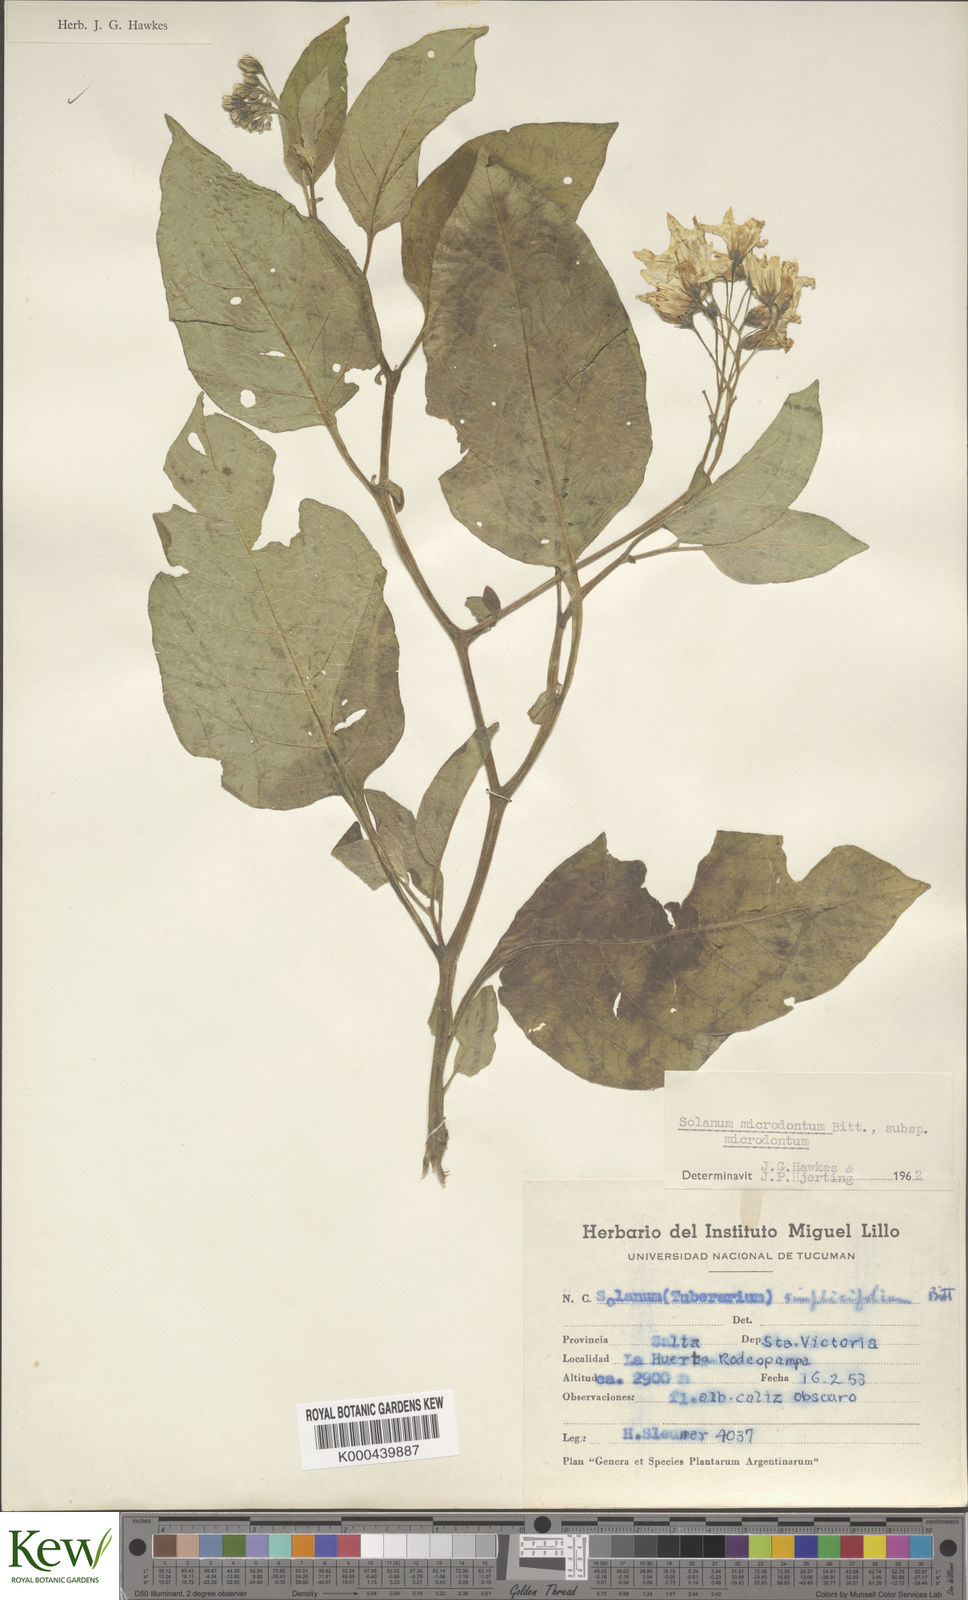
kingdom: Plantae
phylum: Tracheophyta
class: Magnoliopsida
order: Solanales
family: Solanaceae
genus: Solanum
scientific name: Solanum microdontum
